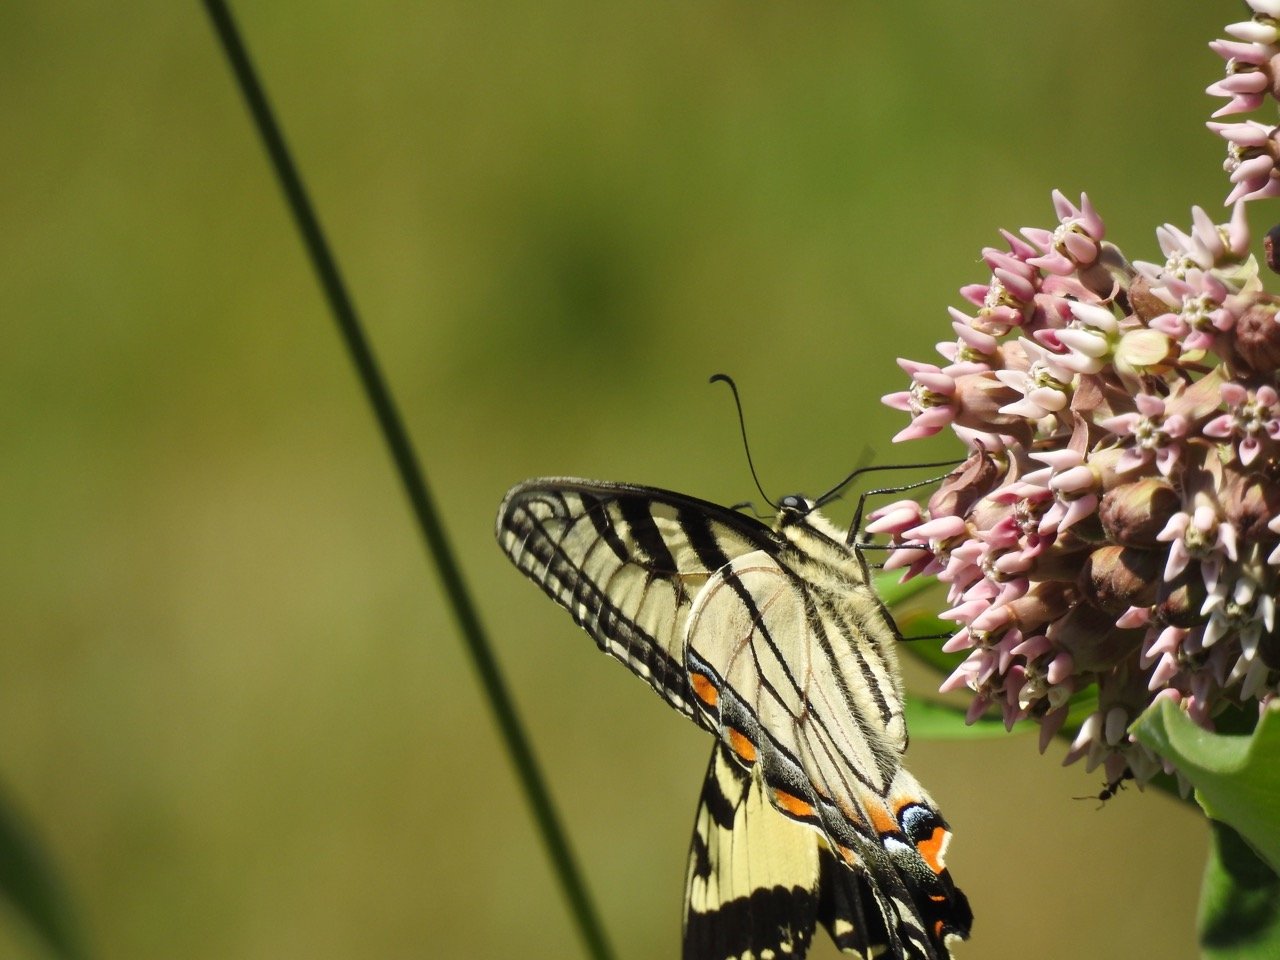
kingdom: Animalia
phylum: Arthropoda
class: Insecta
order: Lepidoptera
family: Papilionidae
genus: Pterourus
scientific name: Pterourus canadensis
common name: Canadian Tiger Swallowtail
